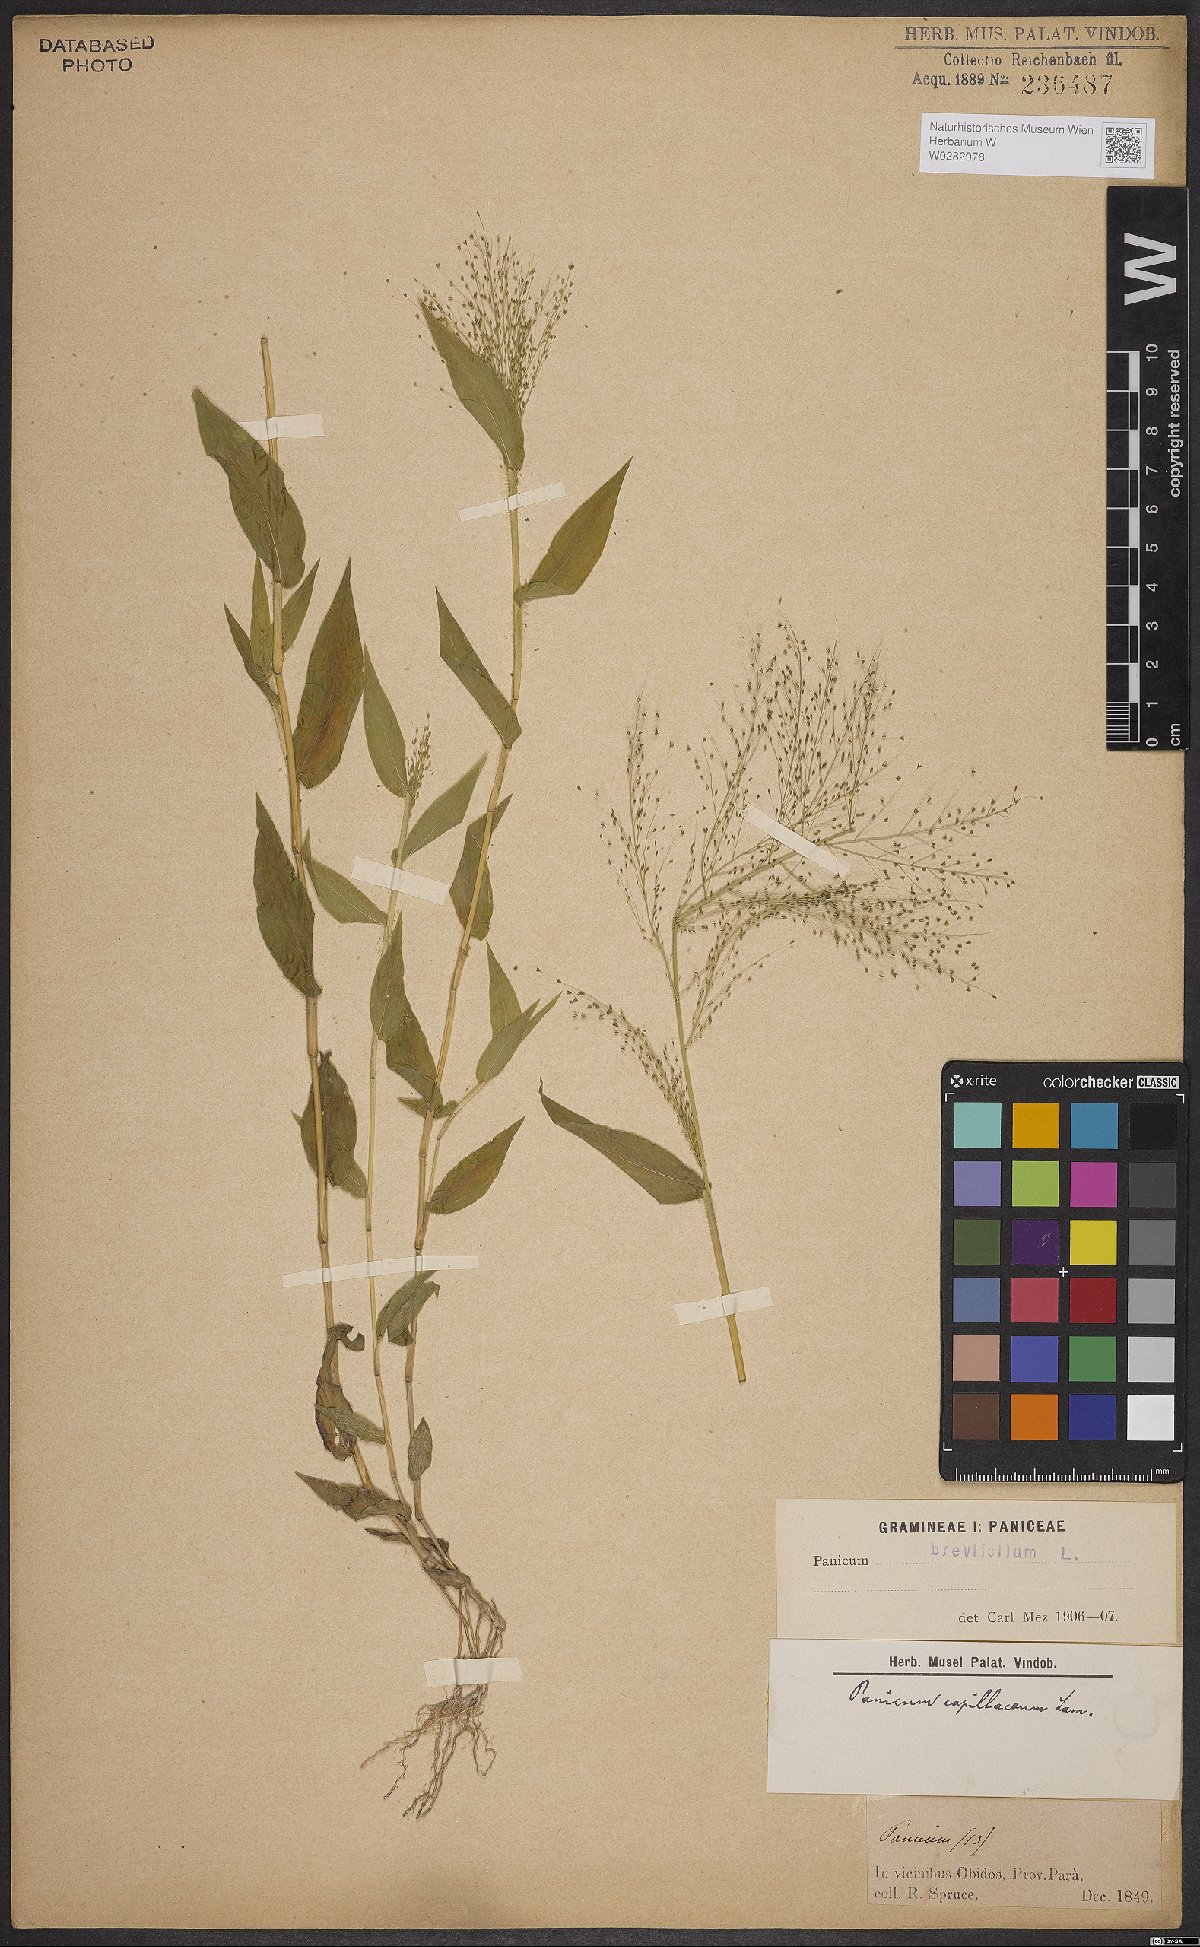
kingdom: Plantae
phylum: Tracheophyta
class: Liliopsida
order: Poales
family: Poaceae
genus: Panicum
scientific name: Panicum brevifolium
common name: Shortleaf panic grass
